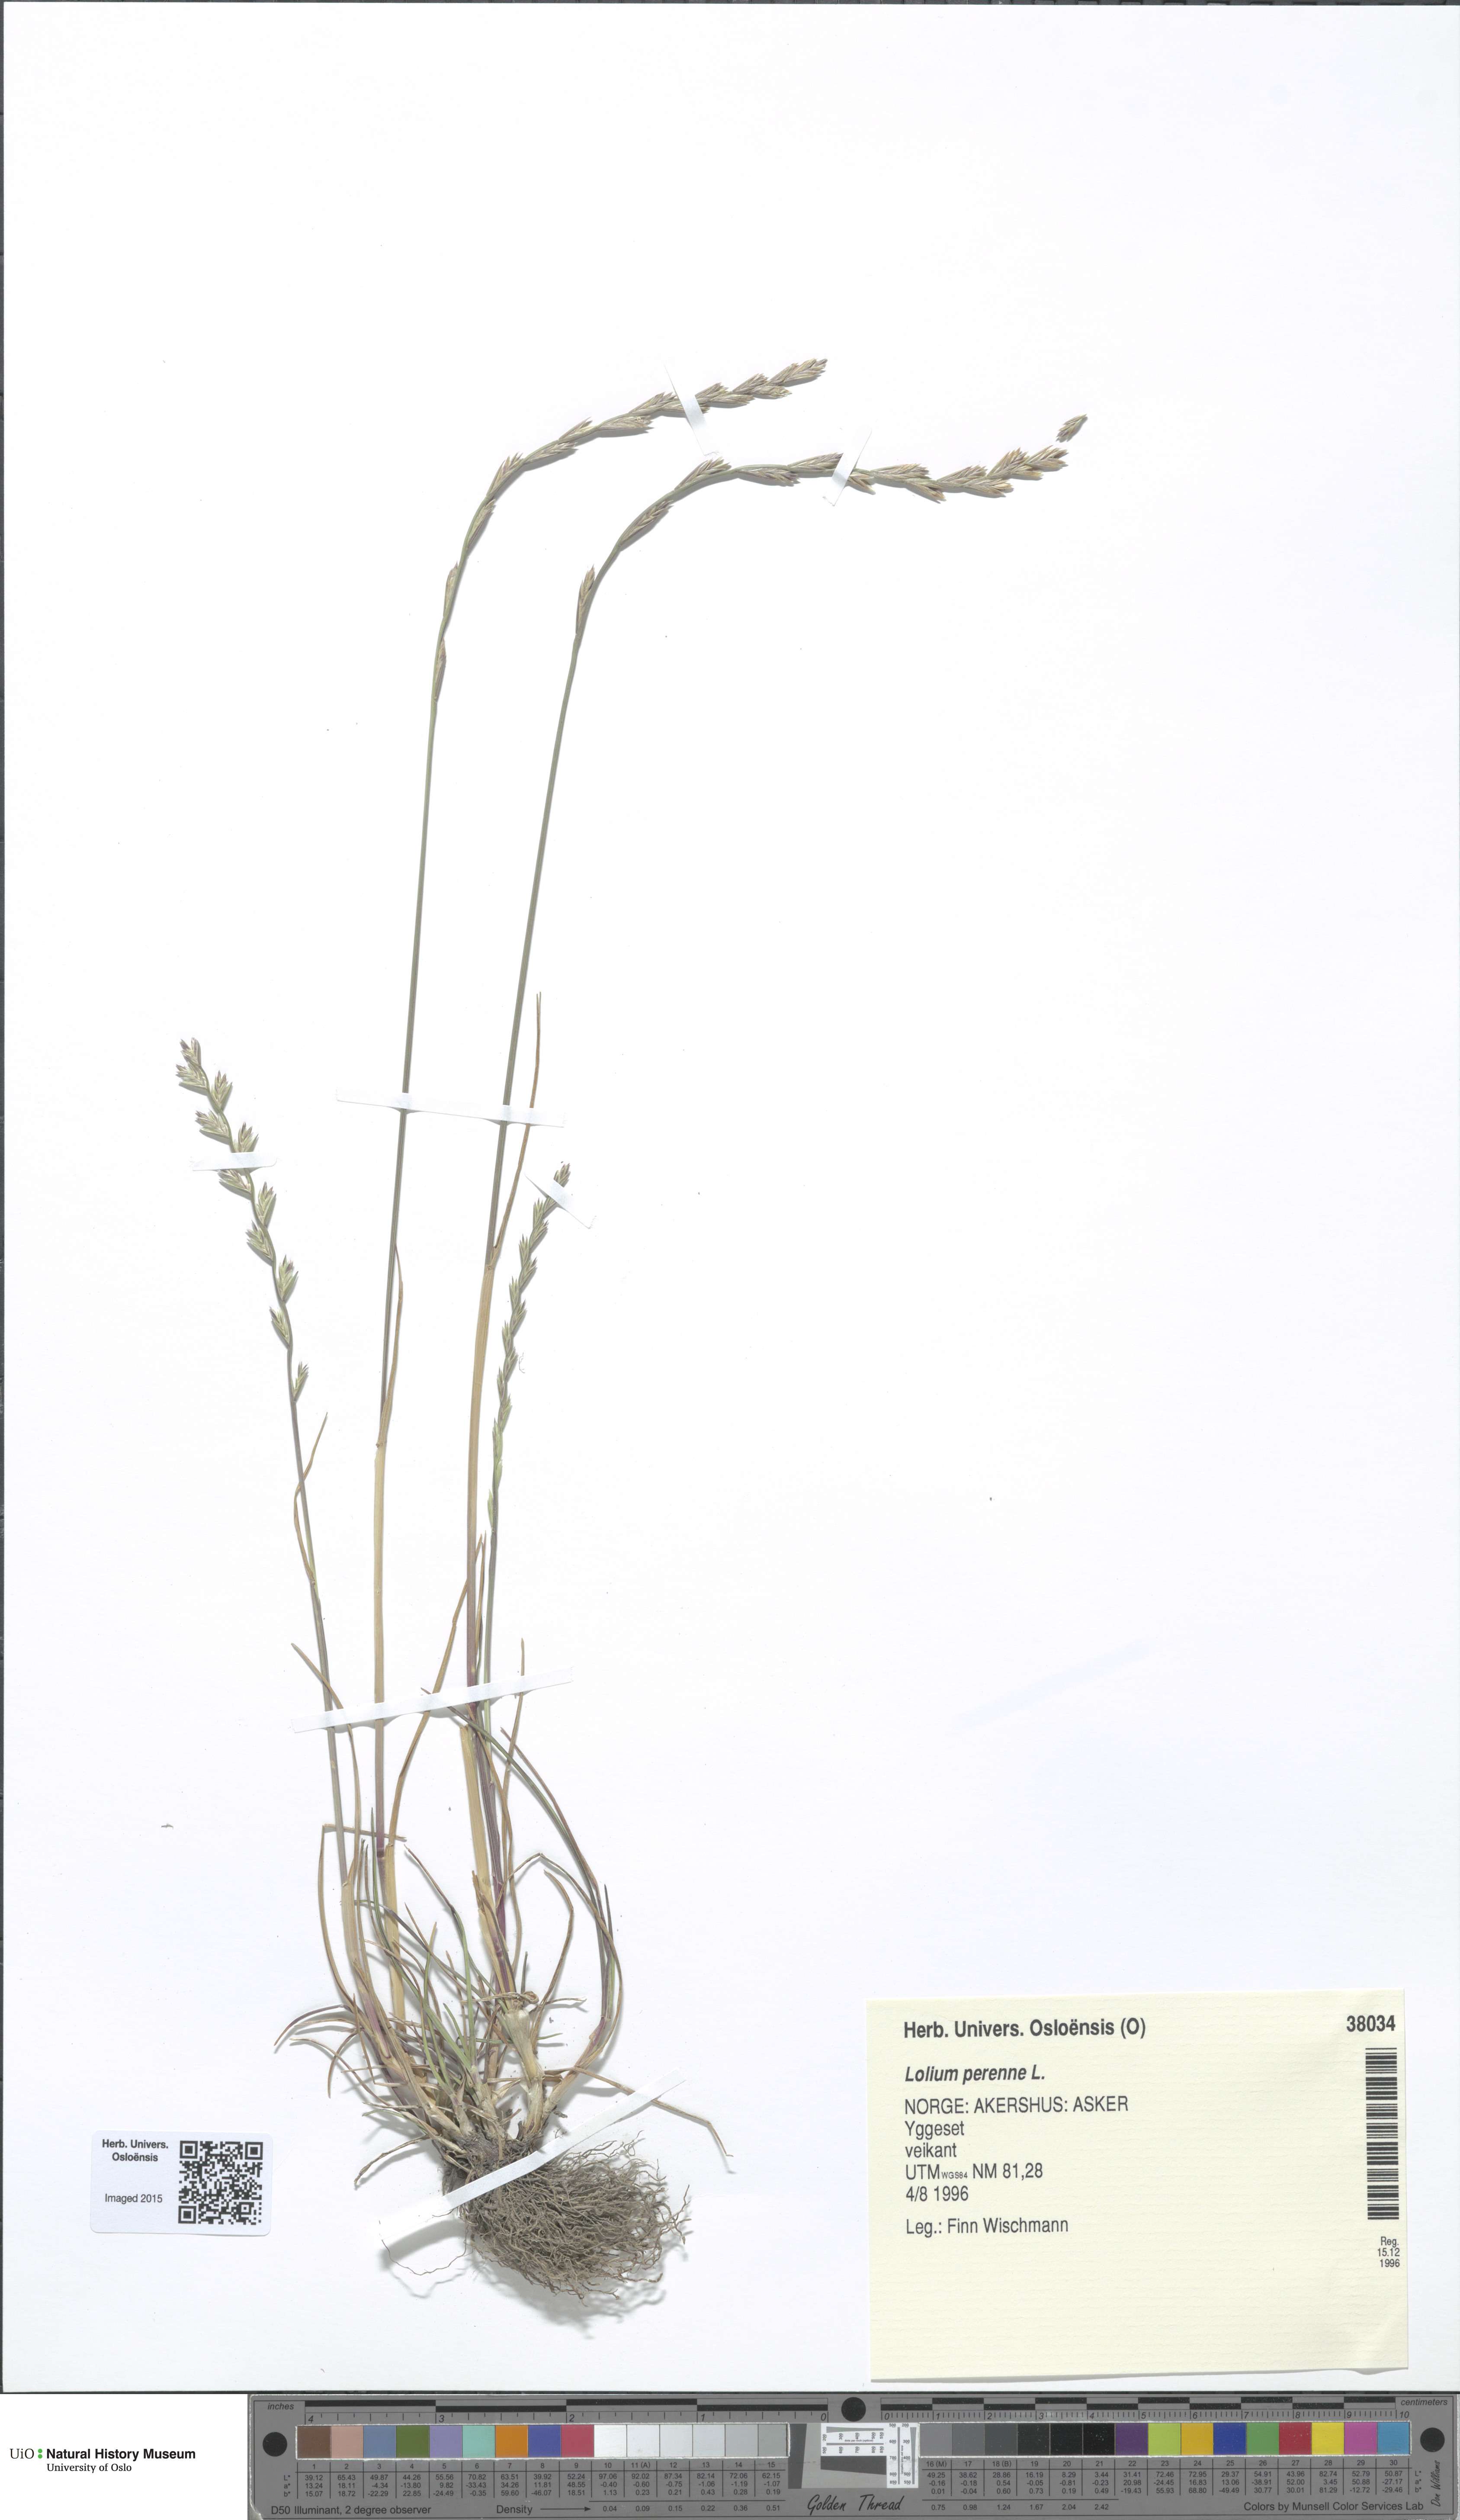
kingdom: Plantae
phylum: Tracheophyta
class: Liliopsida
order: Poales
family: Poaceae
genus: Lolium
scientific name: Lolium perenne
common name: Perennial ryegrass
